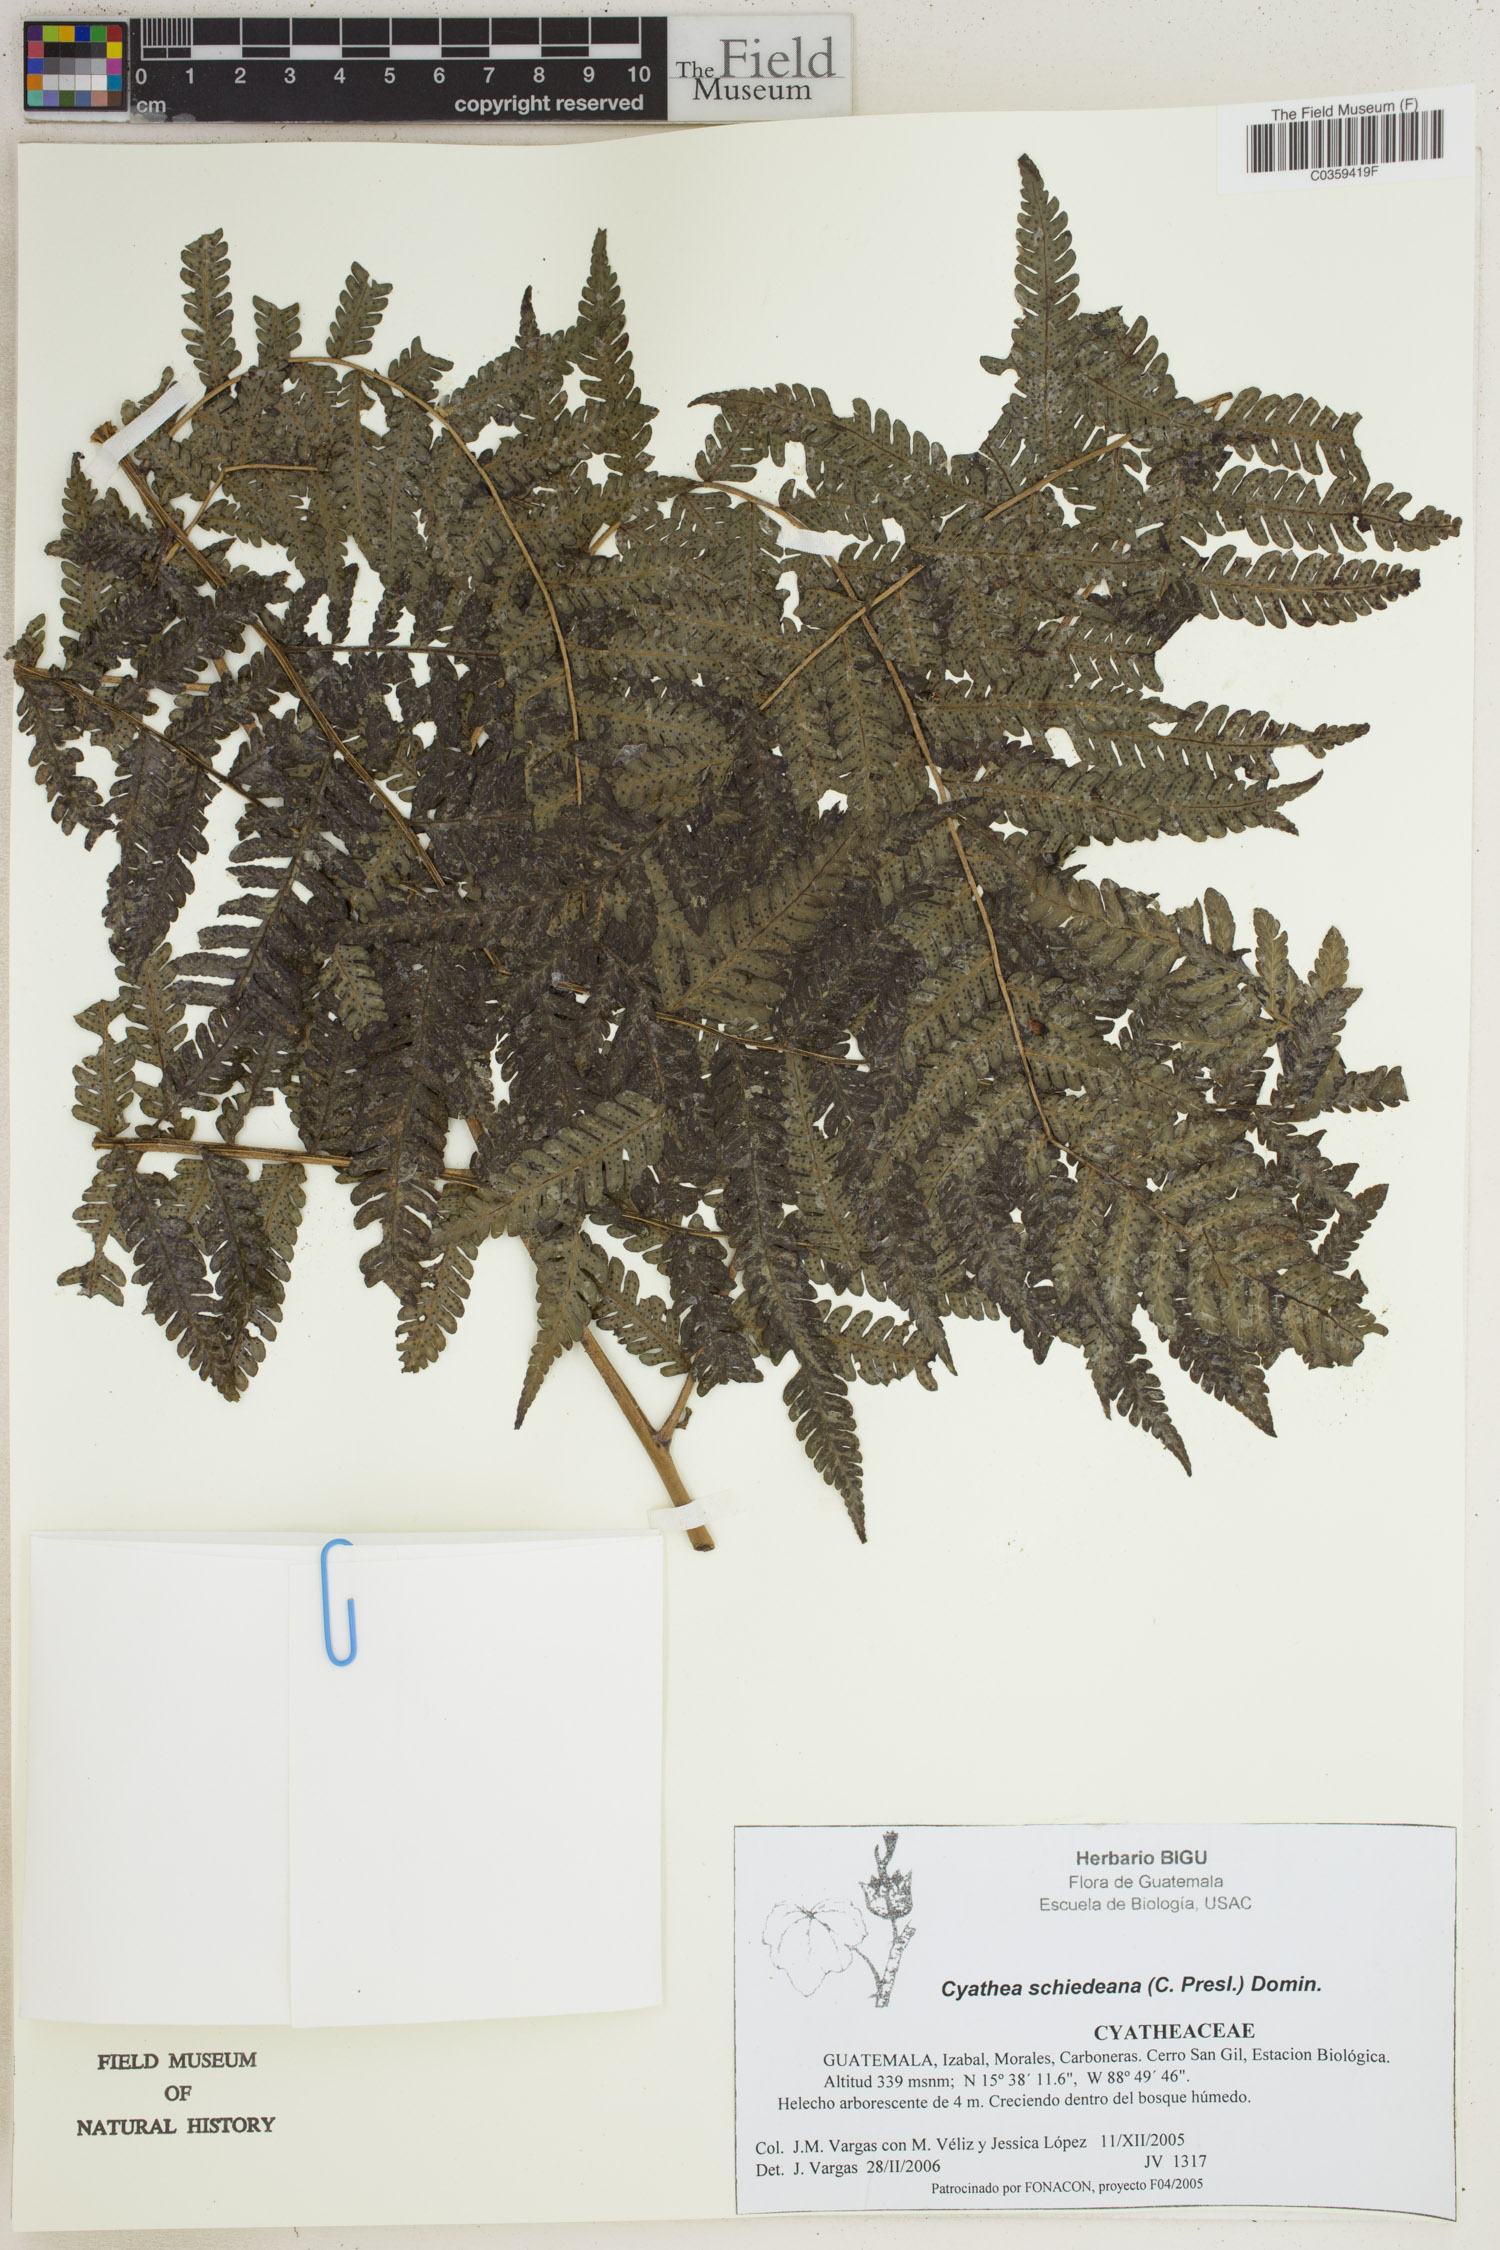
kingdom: Plantae
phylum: Tracheophyta
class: Polypodiopsida
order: Cyatheales
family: Cyatheaceae
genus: Cyathea
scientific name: Cyathea schiedeana
